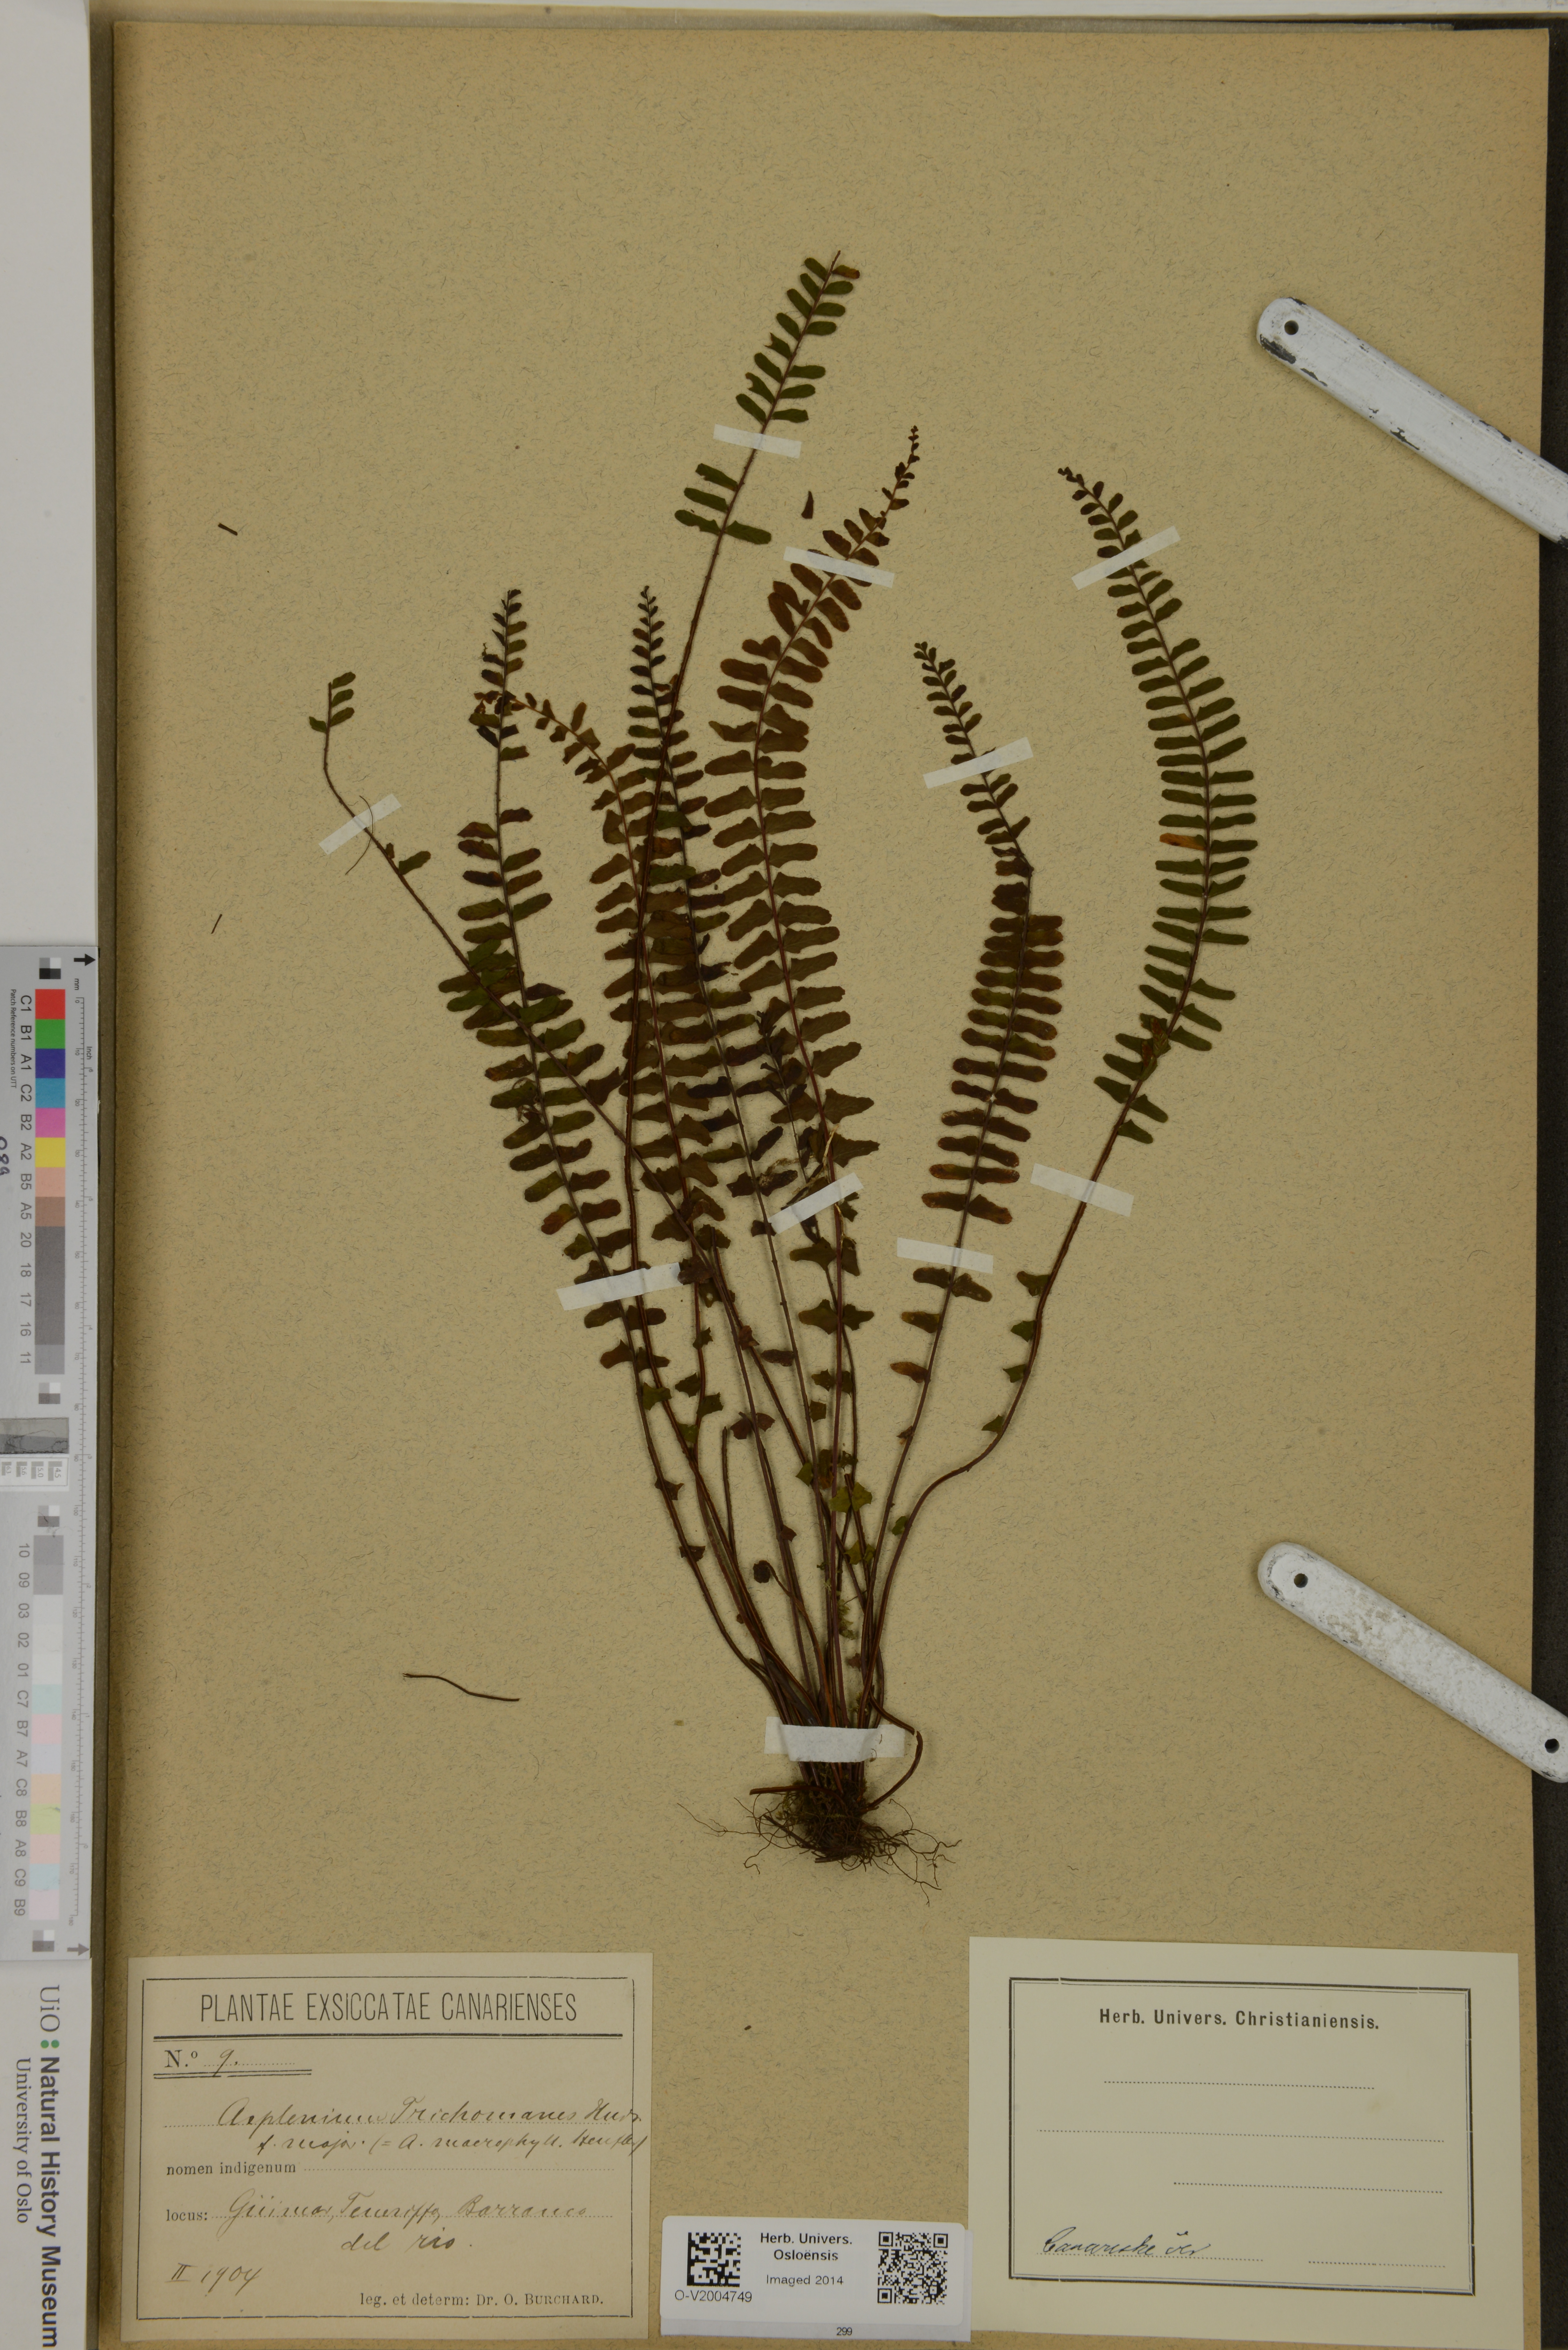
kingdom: Plantae
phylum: Tracheophyta
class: Polypodiopsida
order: Polypodiales
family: Aspleniaceae
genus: Asplenium
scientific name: Asplenium trichomanes
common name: Maidenhair spleenwort
